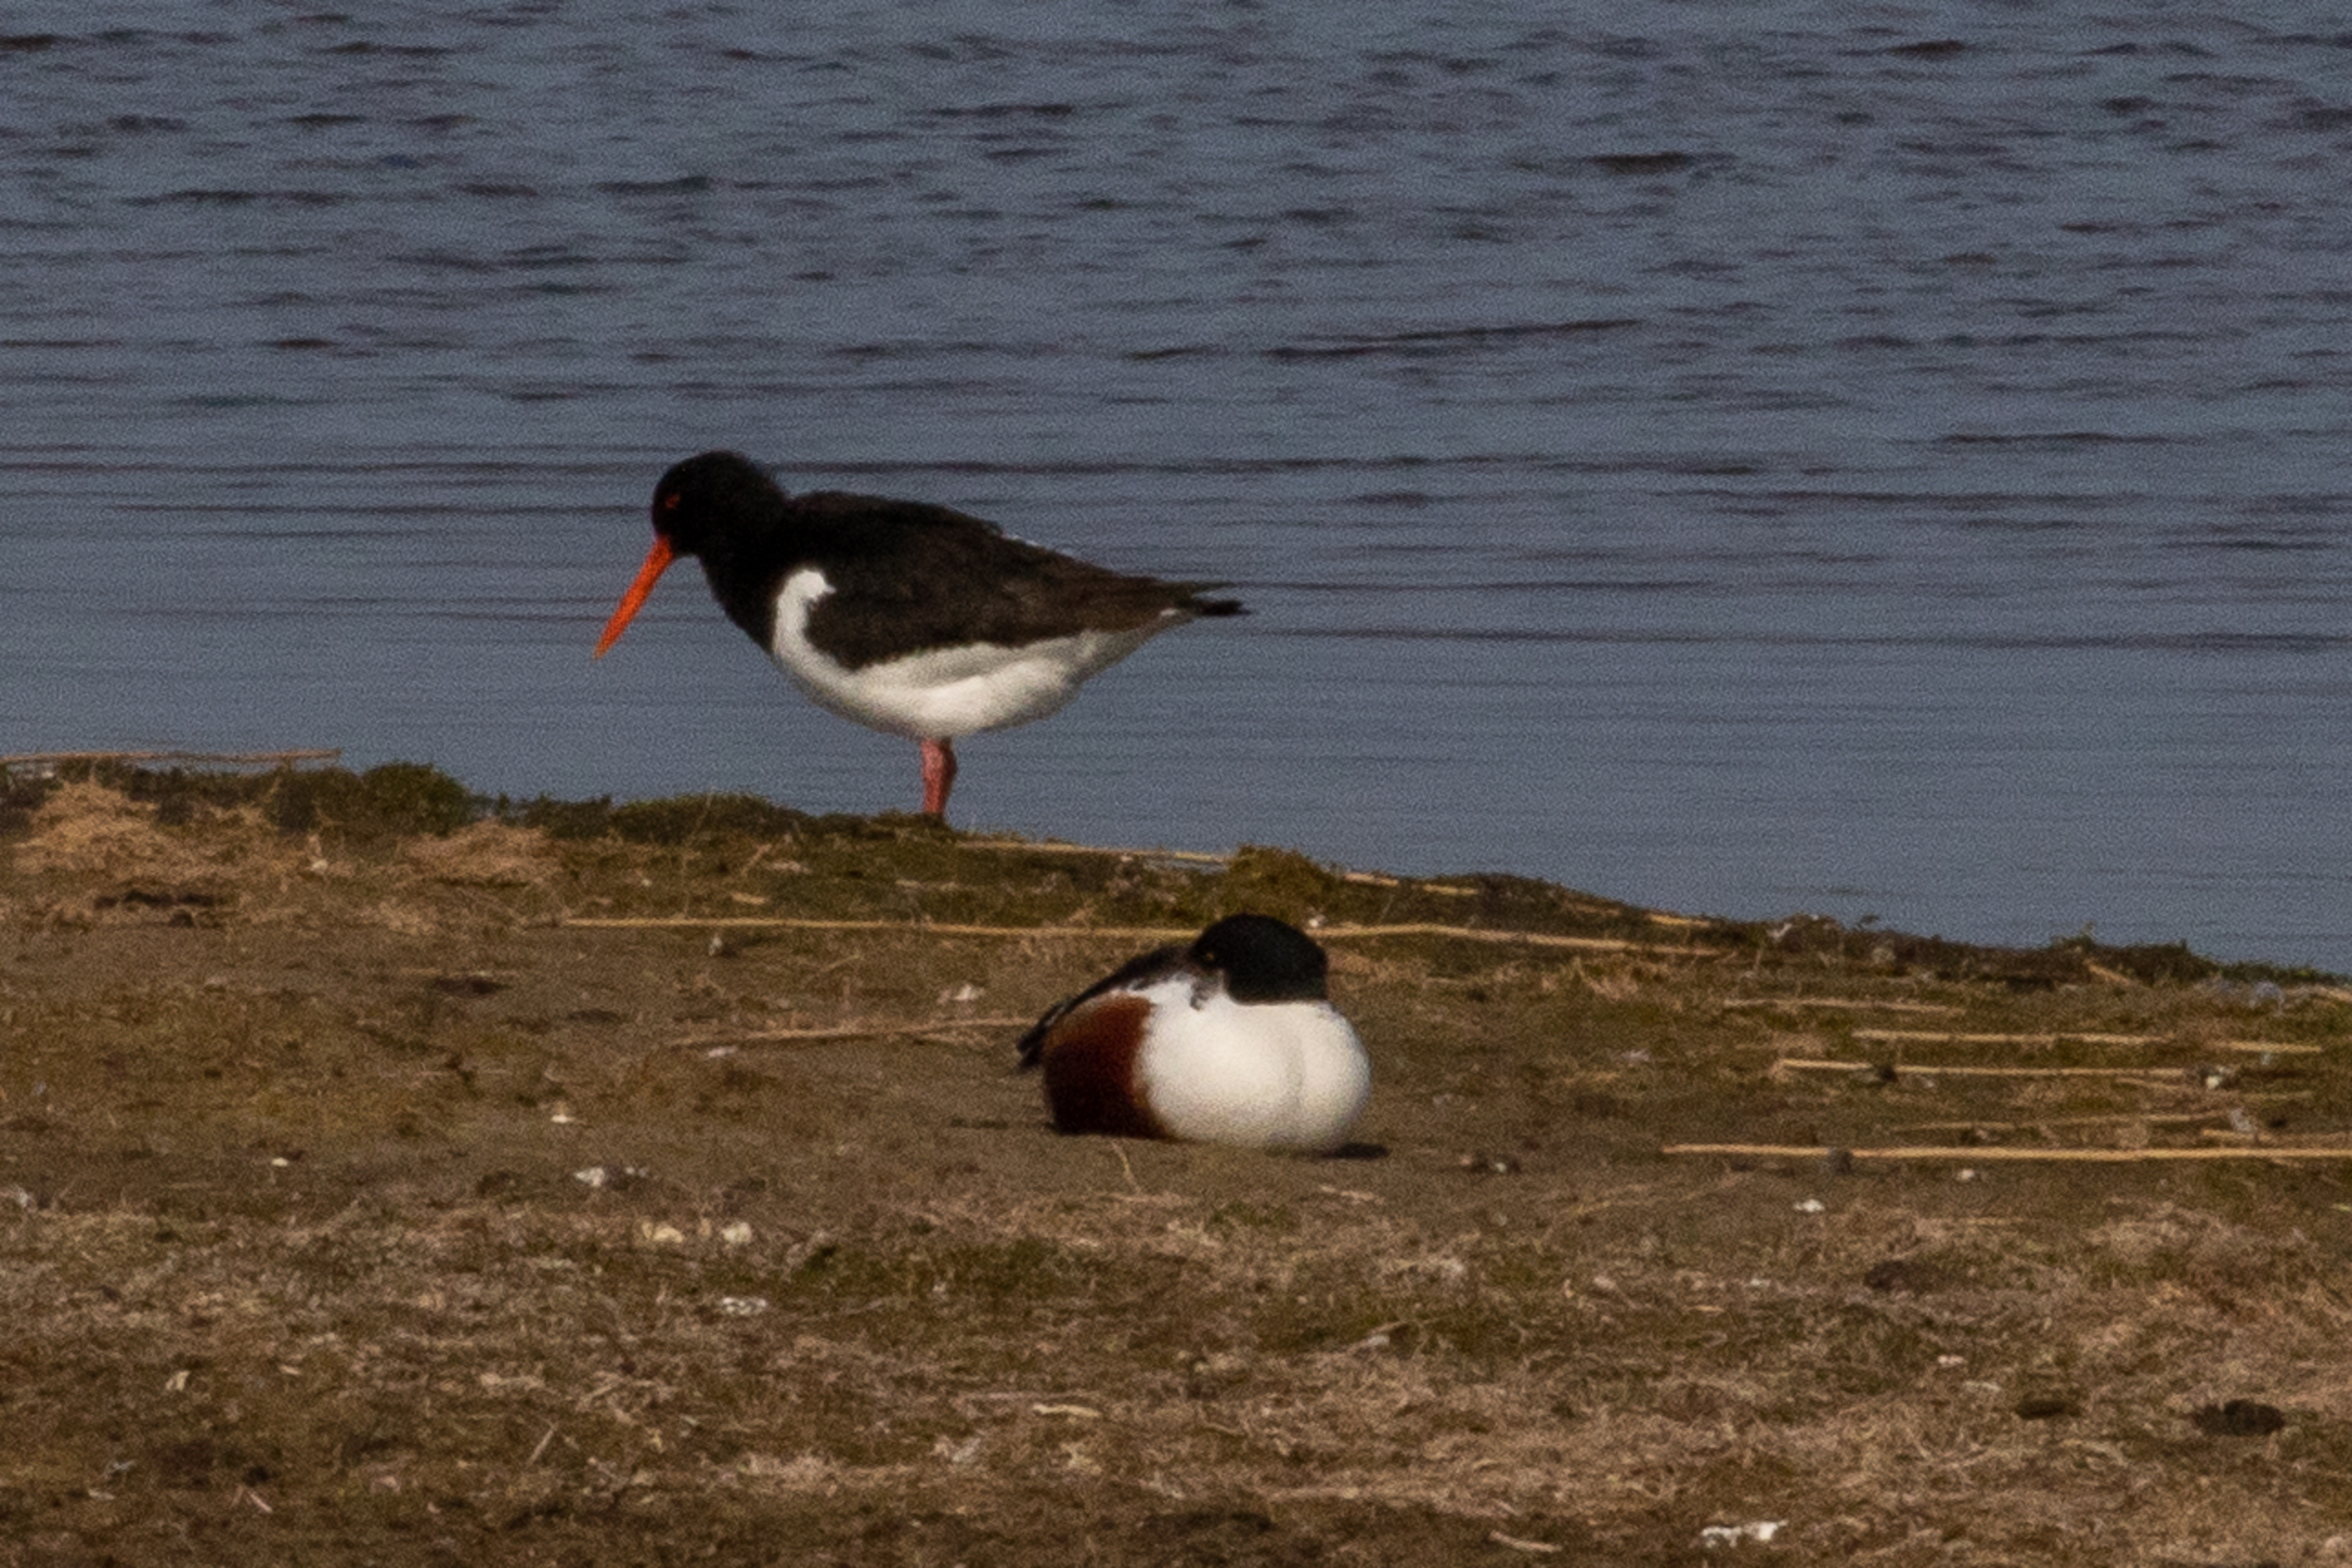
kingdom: Animalia
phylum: Chordata
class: Aves
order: Charadriiformes
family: Haematopodidae
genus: Haematopus
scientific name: Haematopus ostralegus
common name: Strandskade
